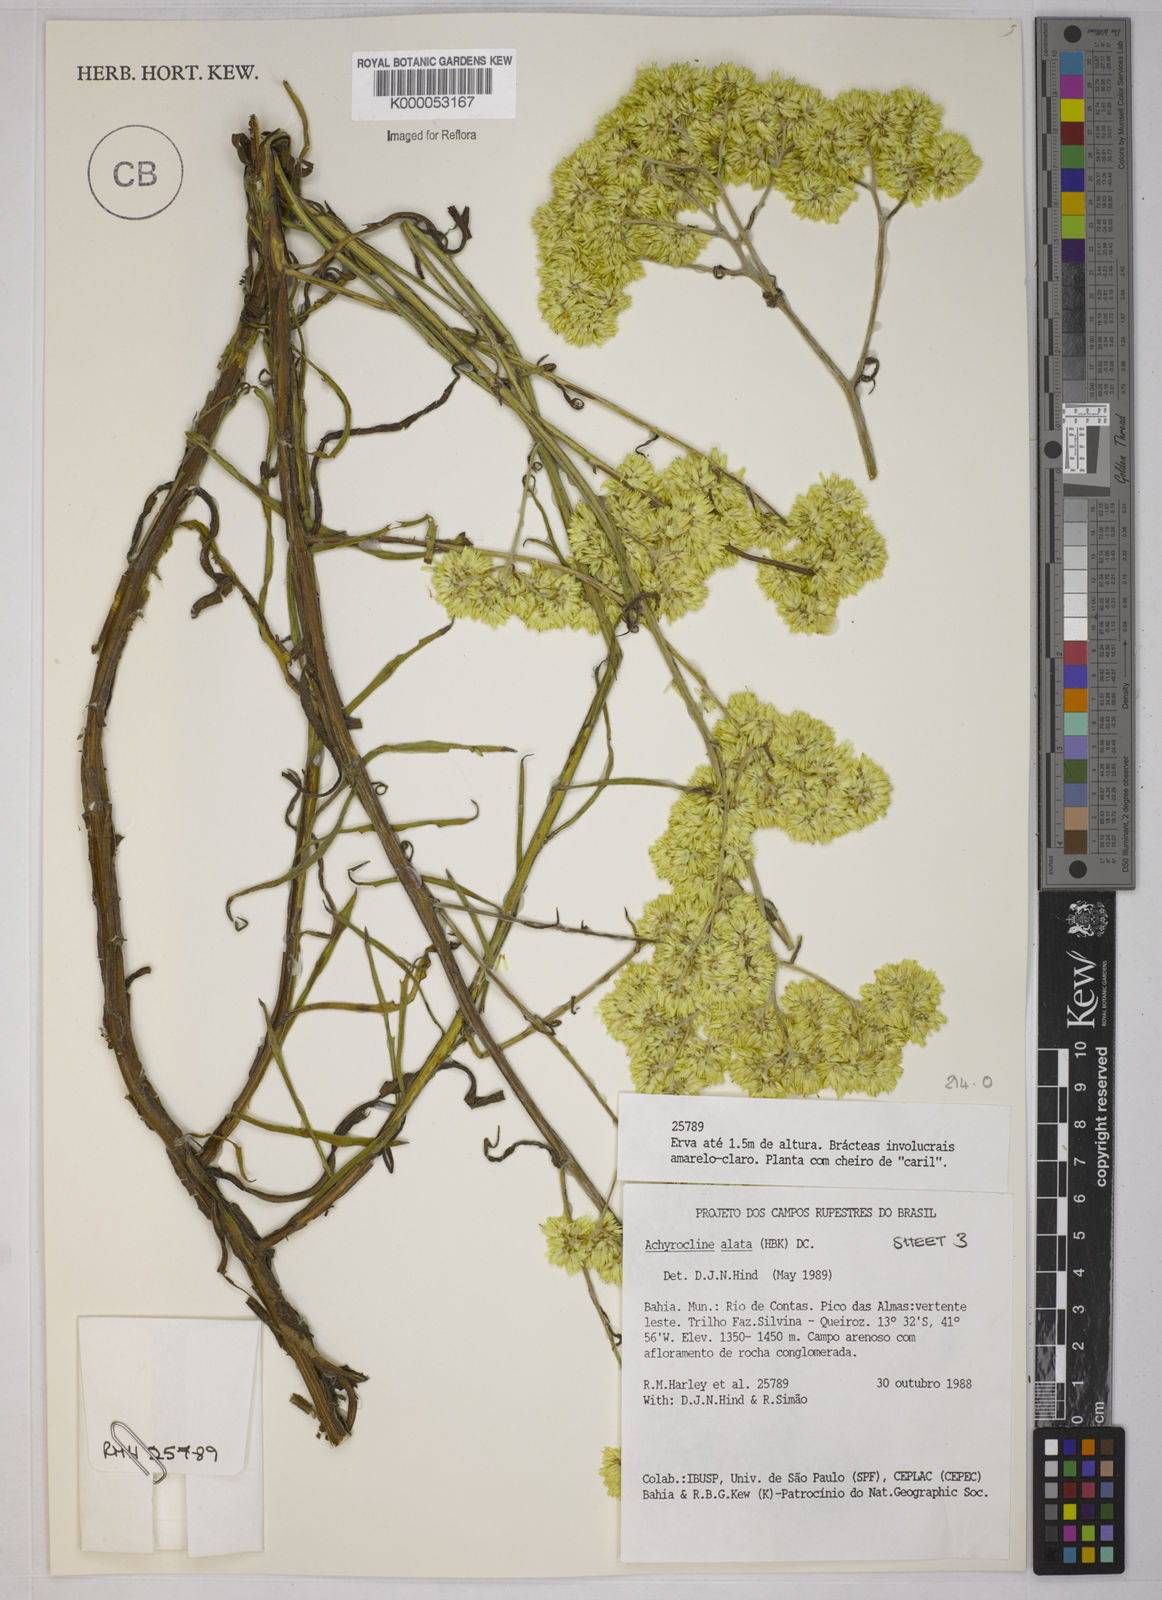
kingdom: Plantae
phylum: Tracheophyta
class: Magnoliopsida
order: Asterales
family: Asteraceae
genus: Achyrocline
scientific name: Achyrocline alata
